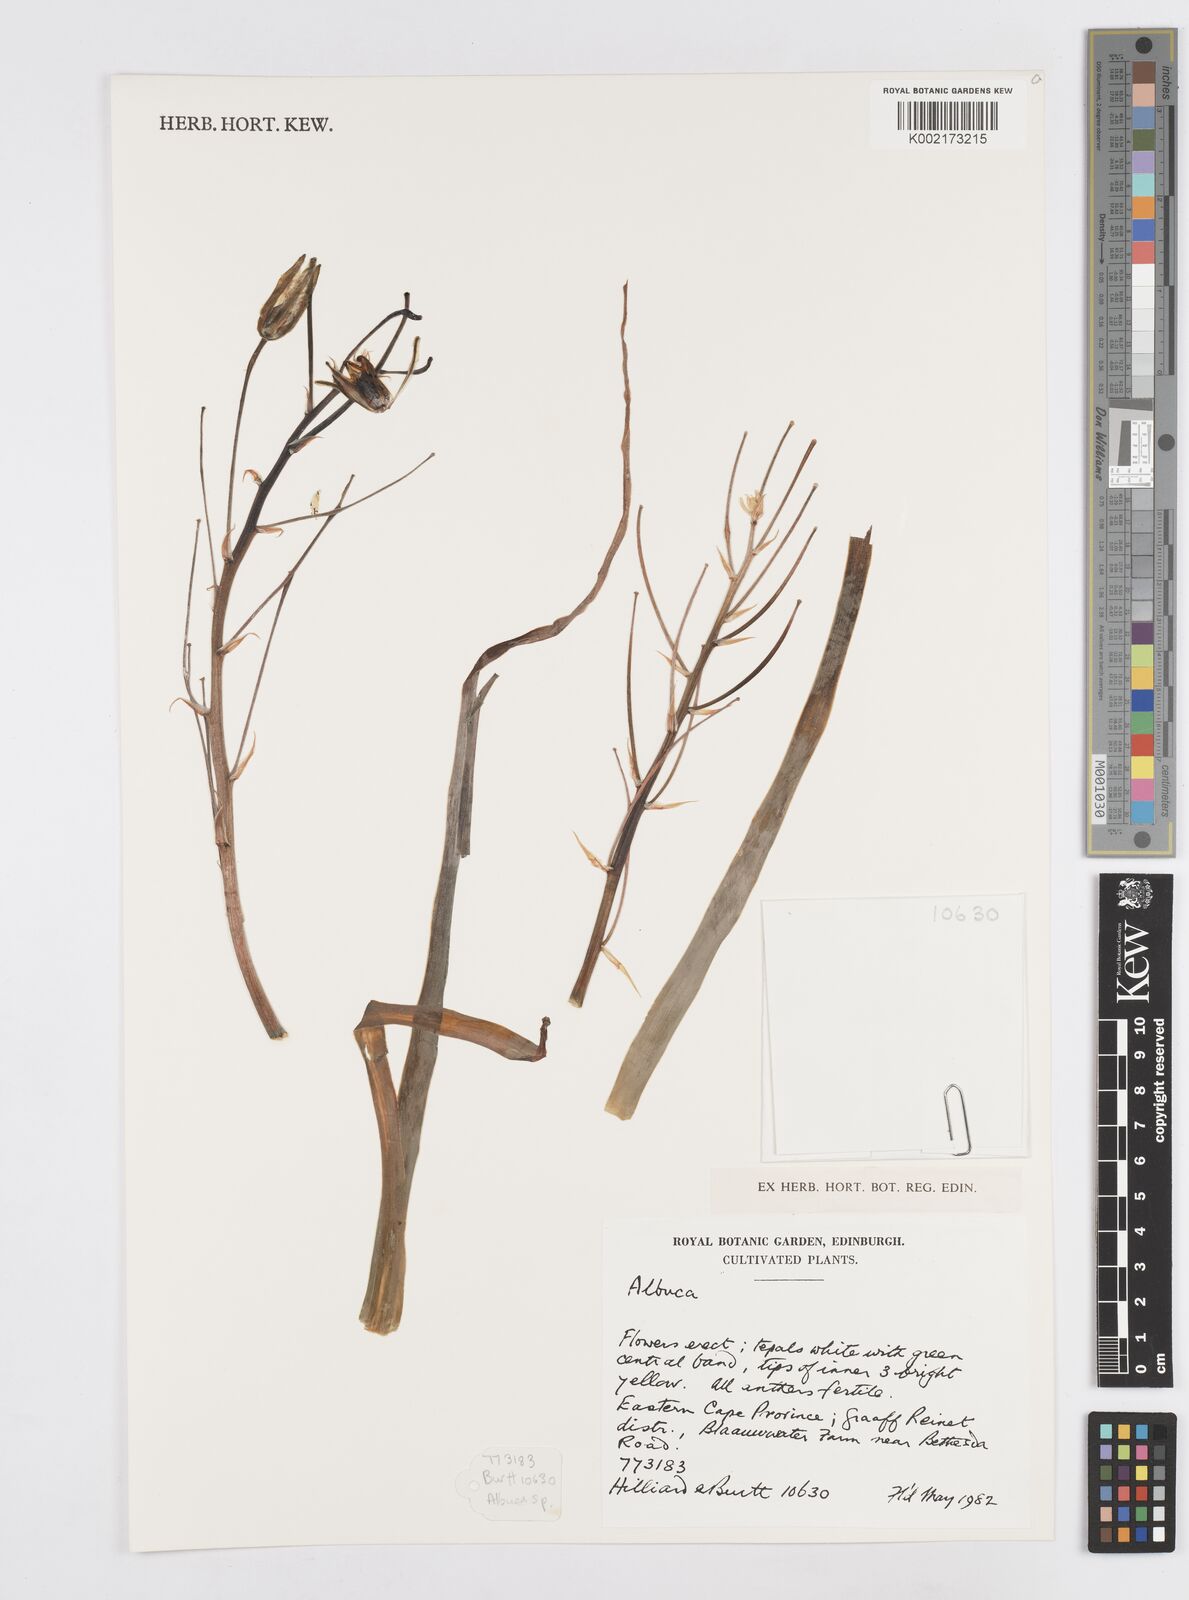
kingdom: Plantae
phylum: Tracheophyta
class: Liliopsida
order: Asparagales
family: Asparagaceae
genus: Albuca
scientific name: Albuca
